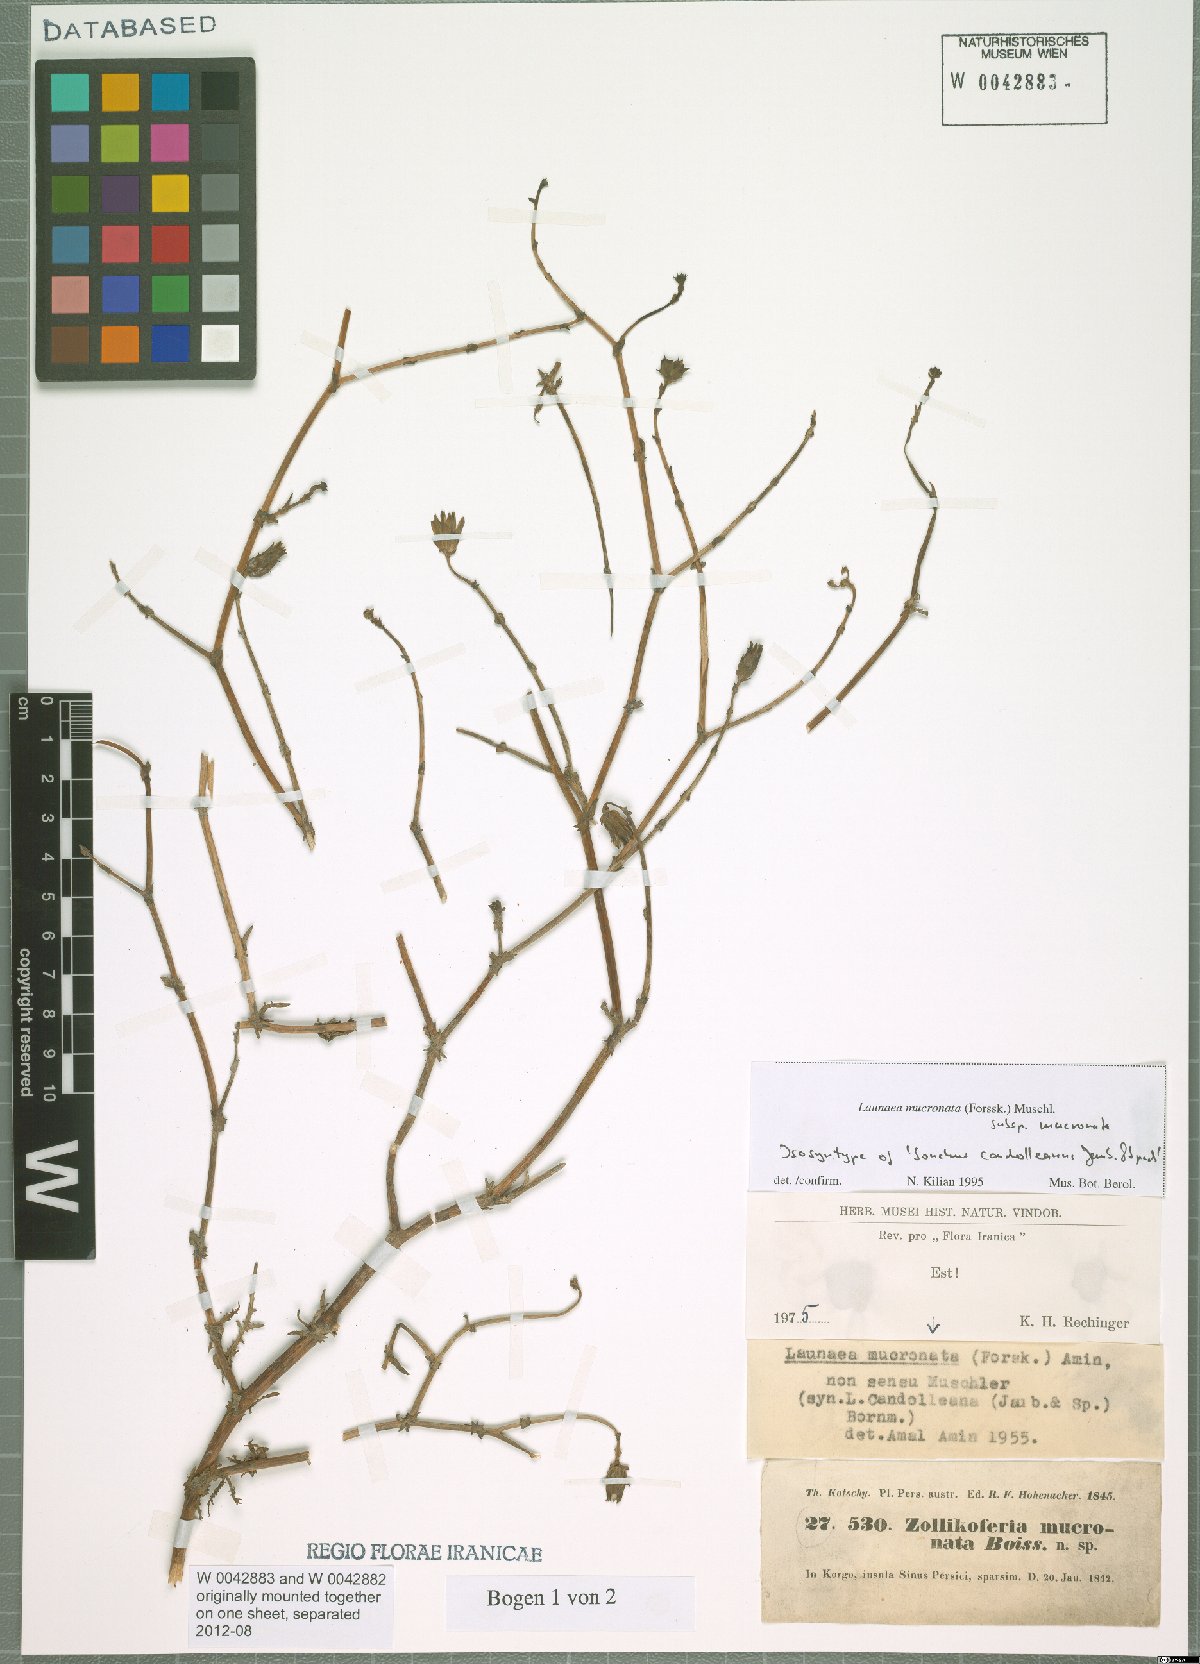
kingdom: Plantae
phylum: Tracheophyta
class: Magnoliopsida
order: Asterales
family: Asteraceae
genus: Launaea
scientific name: Launaea mucronata
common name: Mucronate launea
